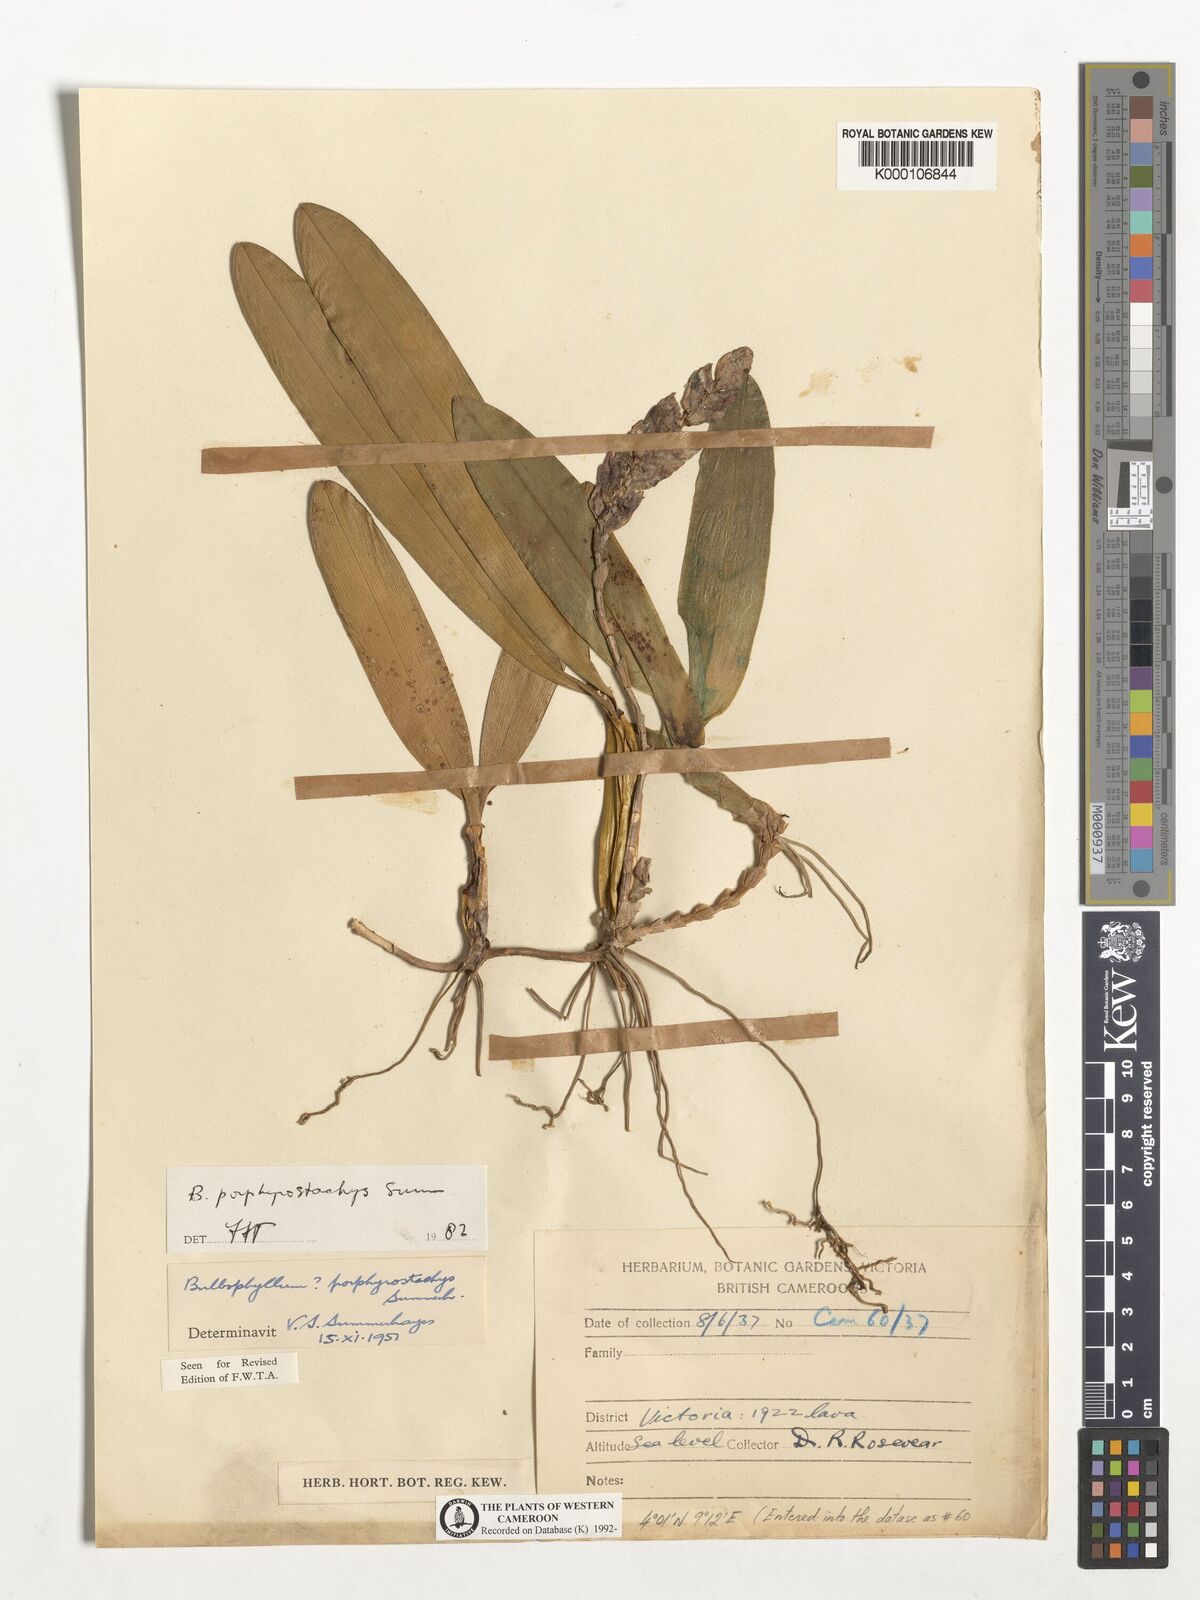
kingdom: Plantae
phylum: Tracheophyta
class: Liliopsida
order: Asparagales
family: Orchidaceae
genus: Bulbophyllum
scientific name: Bulbophyllum porphyrostachys
